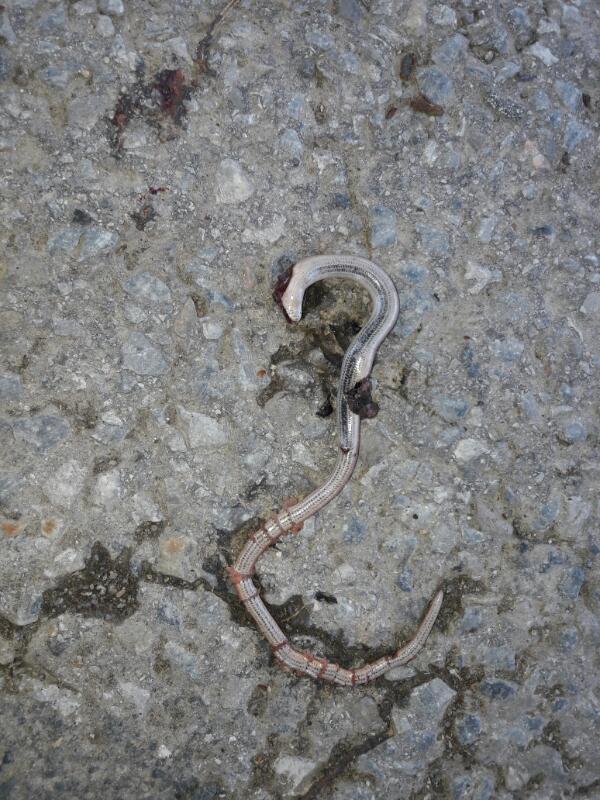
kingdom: Animalia
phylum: Chordata
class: Squamata
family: Anguidae
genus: Anguis
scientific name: Anguis fragilis
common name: Slow worm
